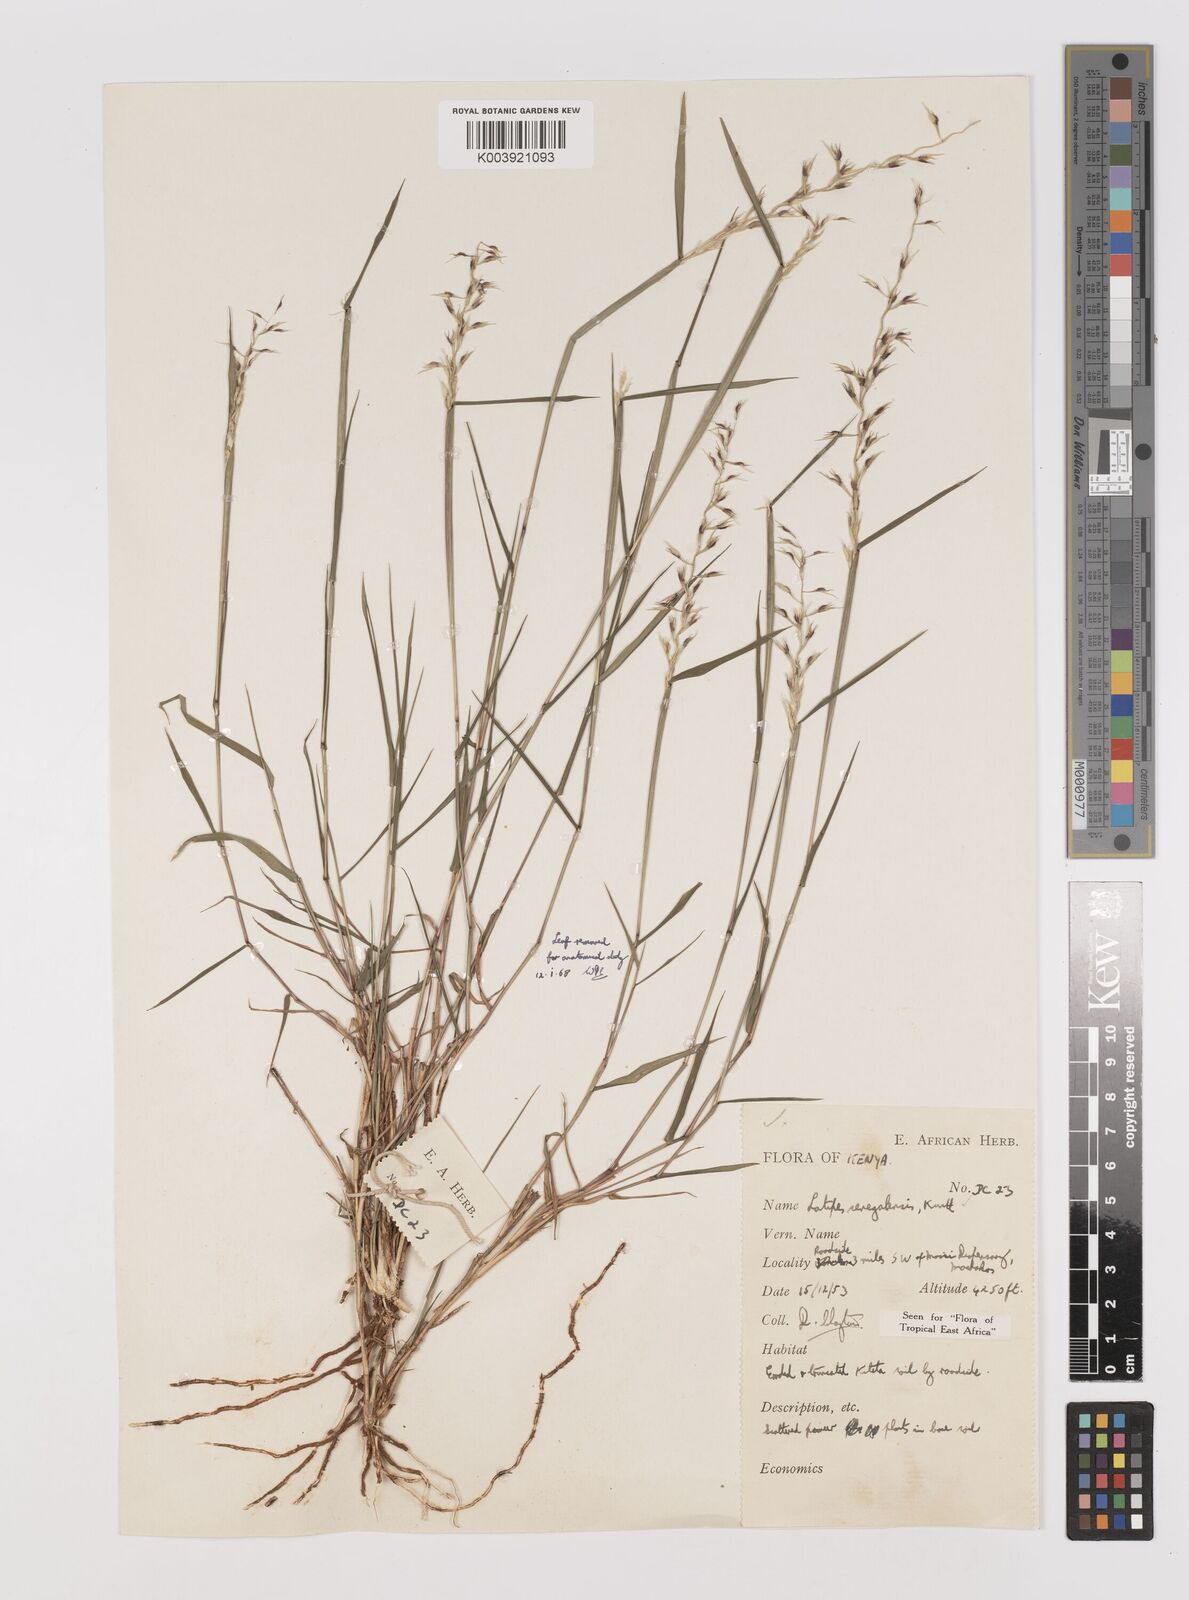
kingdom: Plantae
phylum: Tracheophyta
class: Liliopsida
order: Poales
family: Poaceae
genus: Leptothrium
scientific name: Leptothrium senegalense
